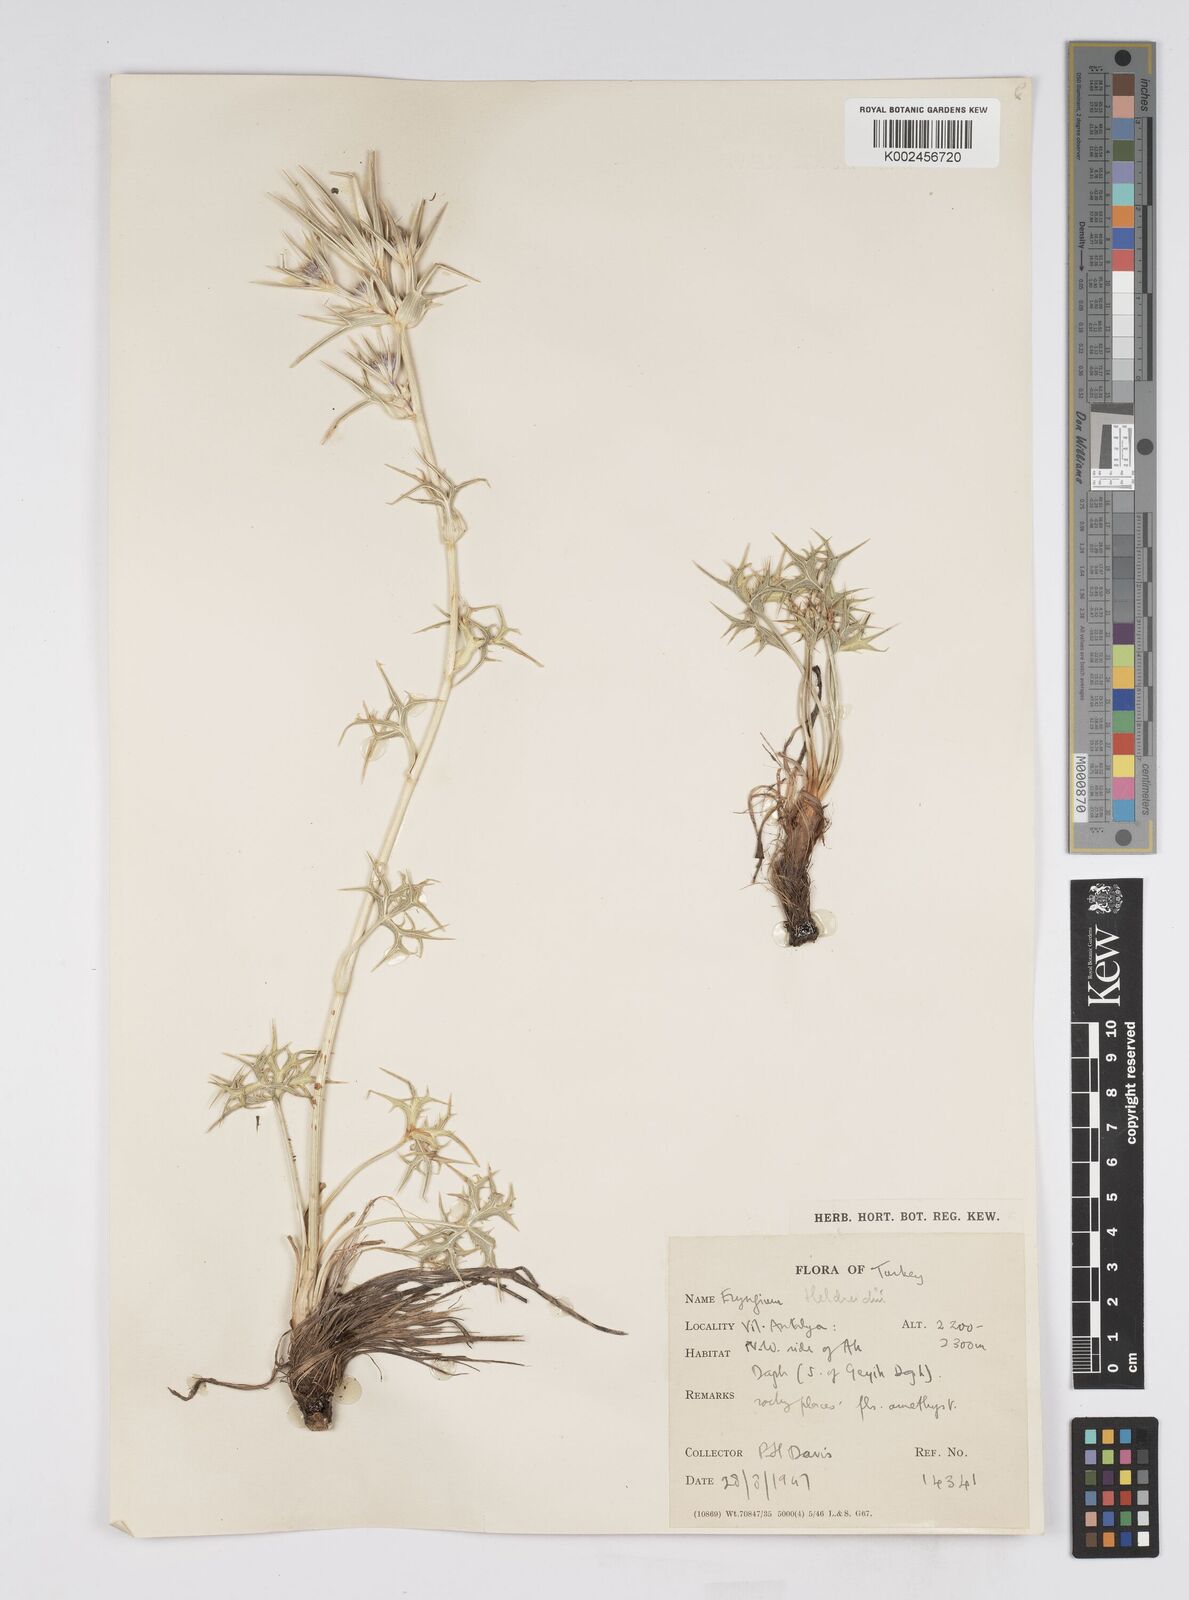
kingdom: Plantae
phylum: Tracheophyta
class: Magnoliopsida
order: Apiales
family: Apiaceae
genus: Eryngium
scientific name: Eryngium heldreichii
